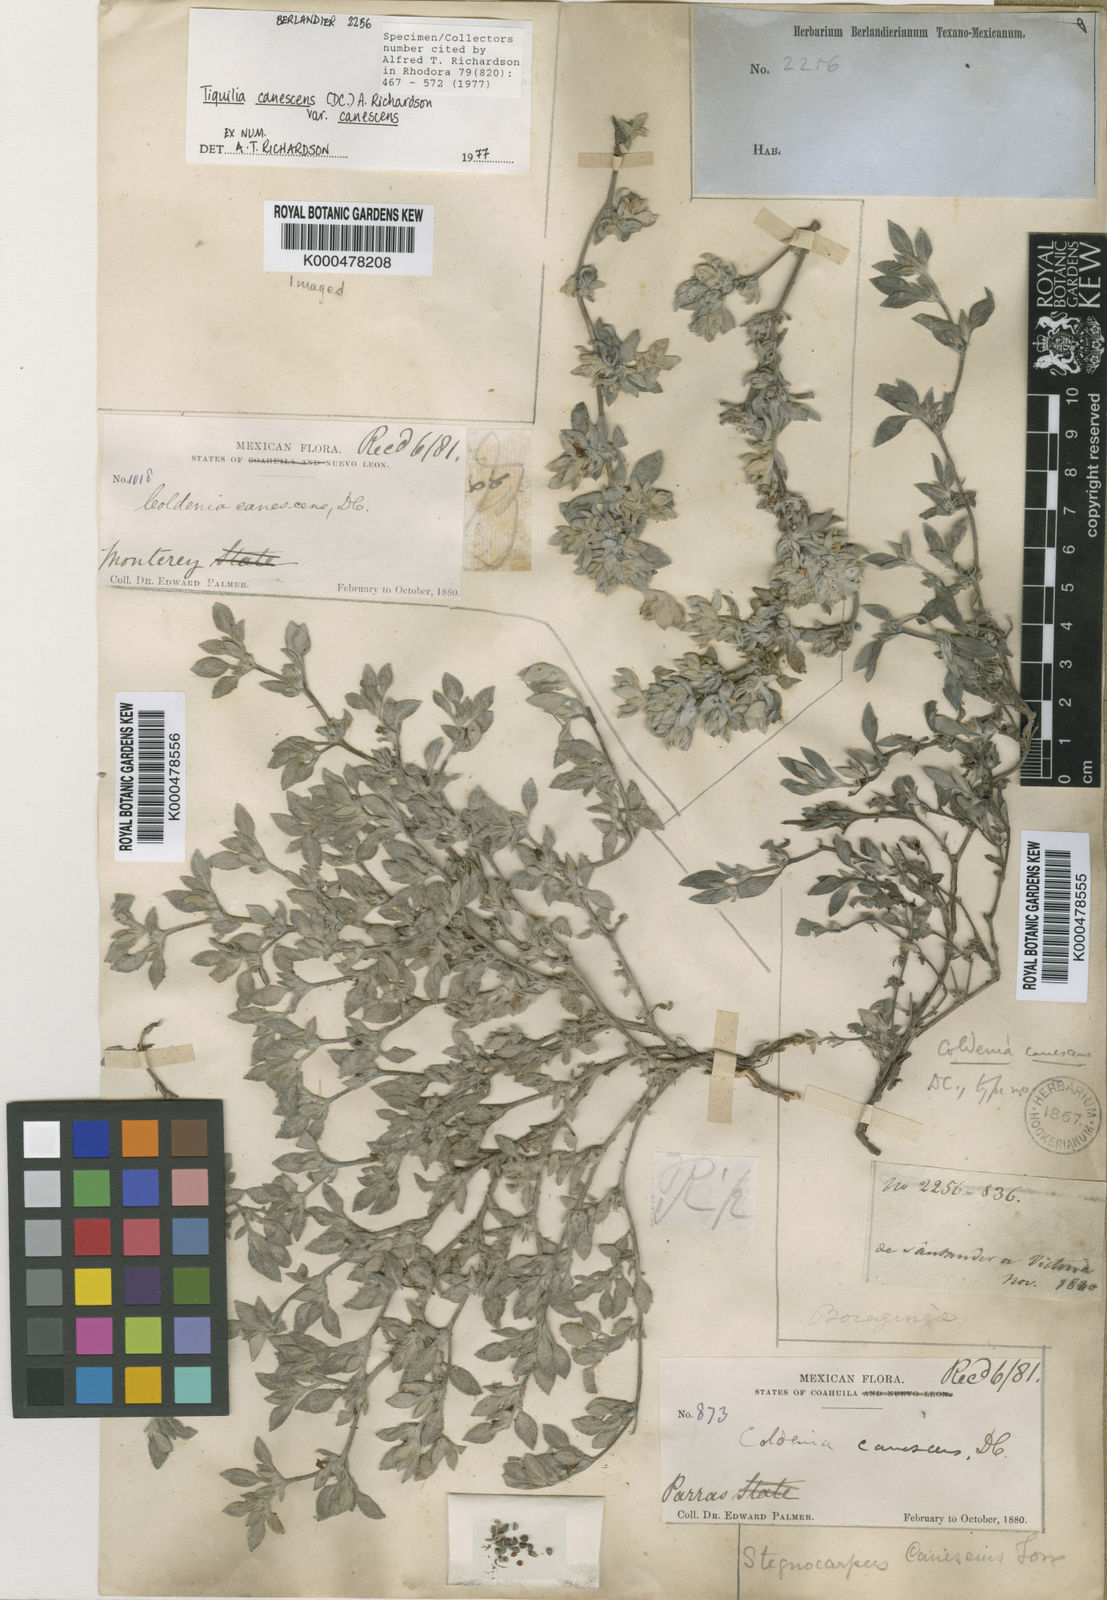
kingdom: Plantae
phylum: Tracheophyta
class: Magnoliopsida
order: Boraginales
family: Ehretiaceae
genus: Tiquilia
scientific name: Tiquilia canescens
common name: Hairy tiquilia
